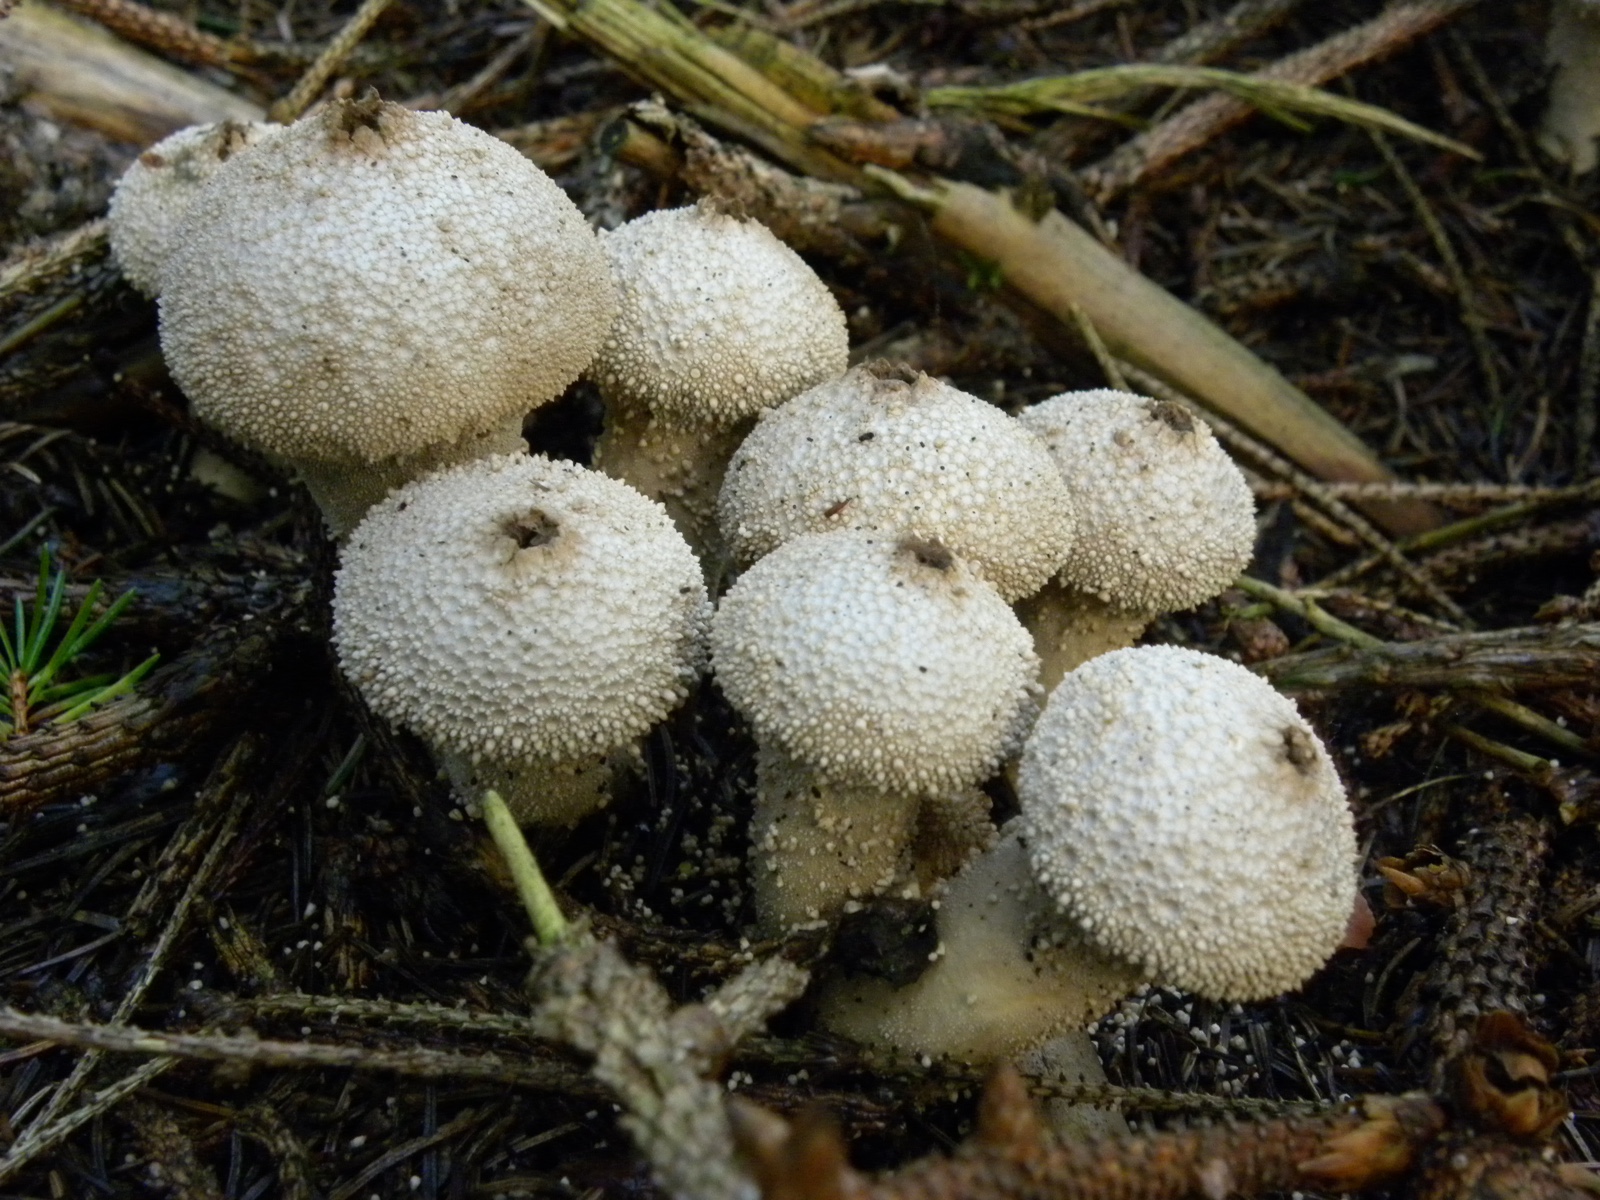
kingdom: Fungi
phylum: Basidiomycota
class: Agaricomycetes
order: Agaricales
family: Lycoperdaceae
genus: Lycoperdon
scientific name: Lycoperdon perlatum
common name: krystal-støvbold
